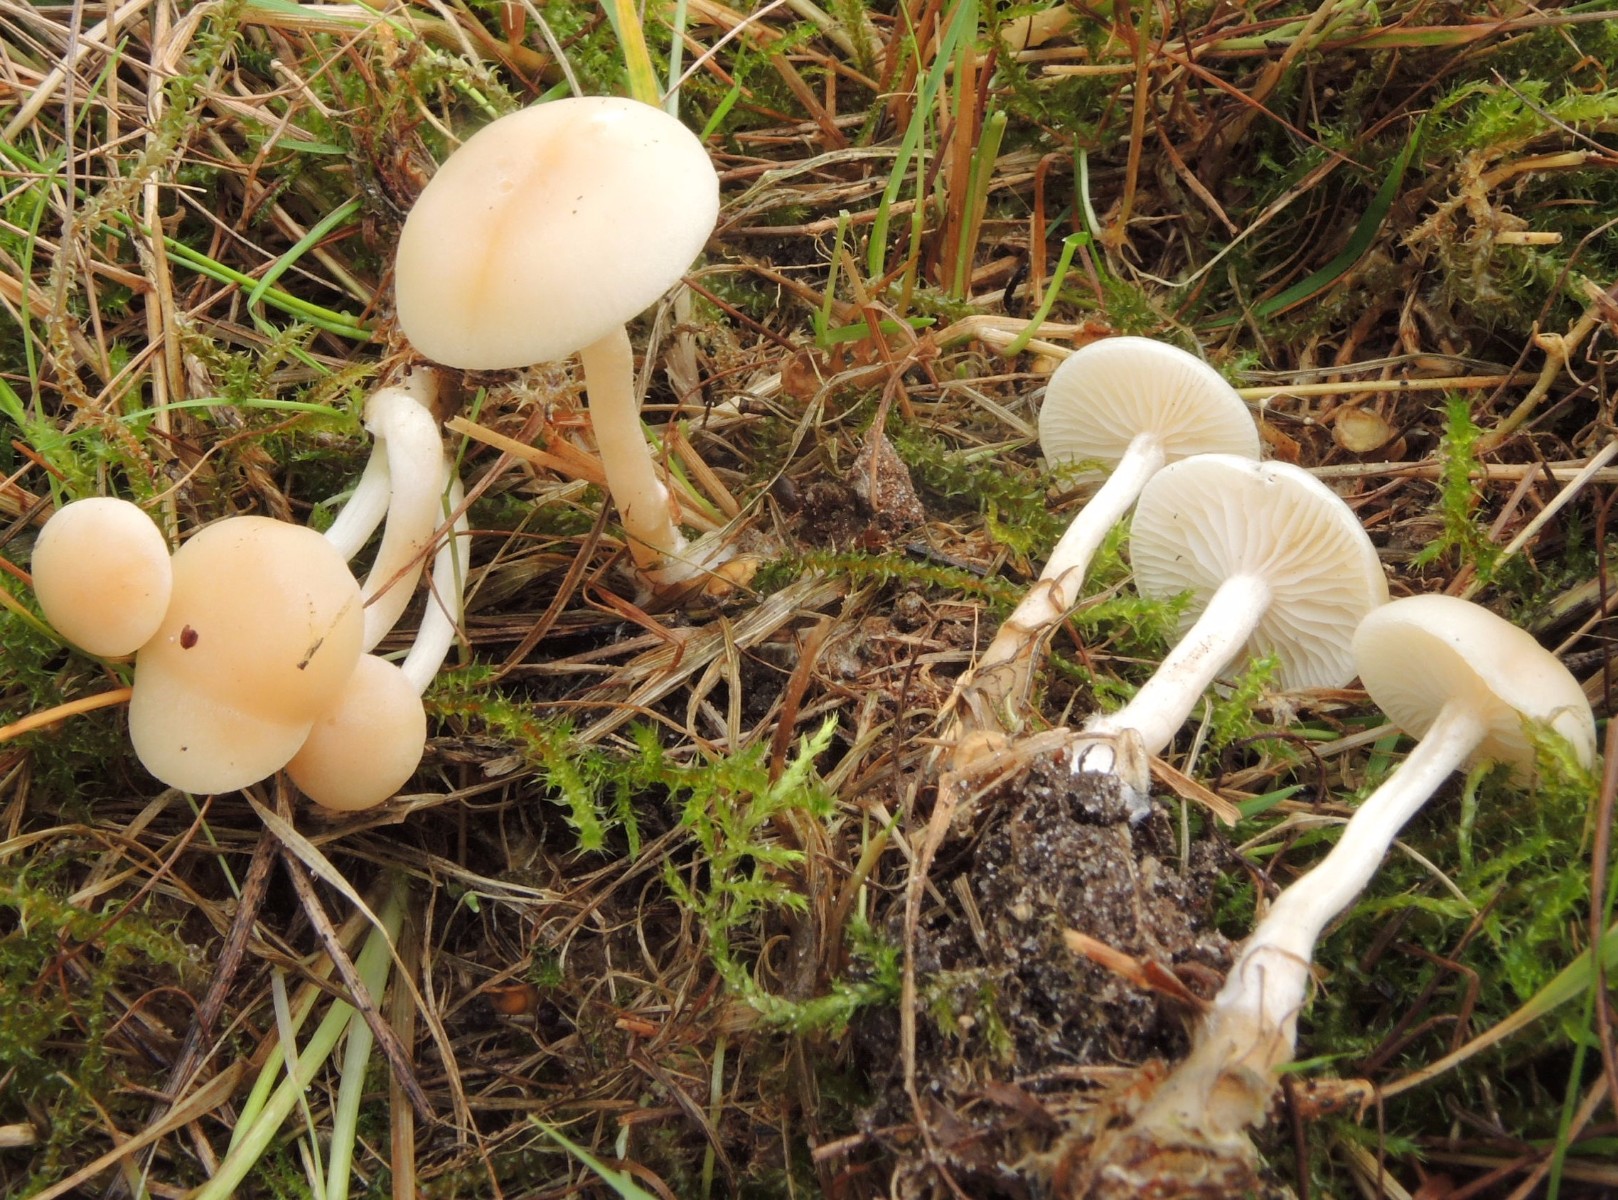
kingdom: Fungi
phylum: Basidiomycota
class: Agaricomycetes
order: Agaricales
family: Tricholomataceae
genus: Clitocybe
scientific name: Clitocybe agrestis
